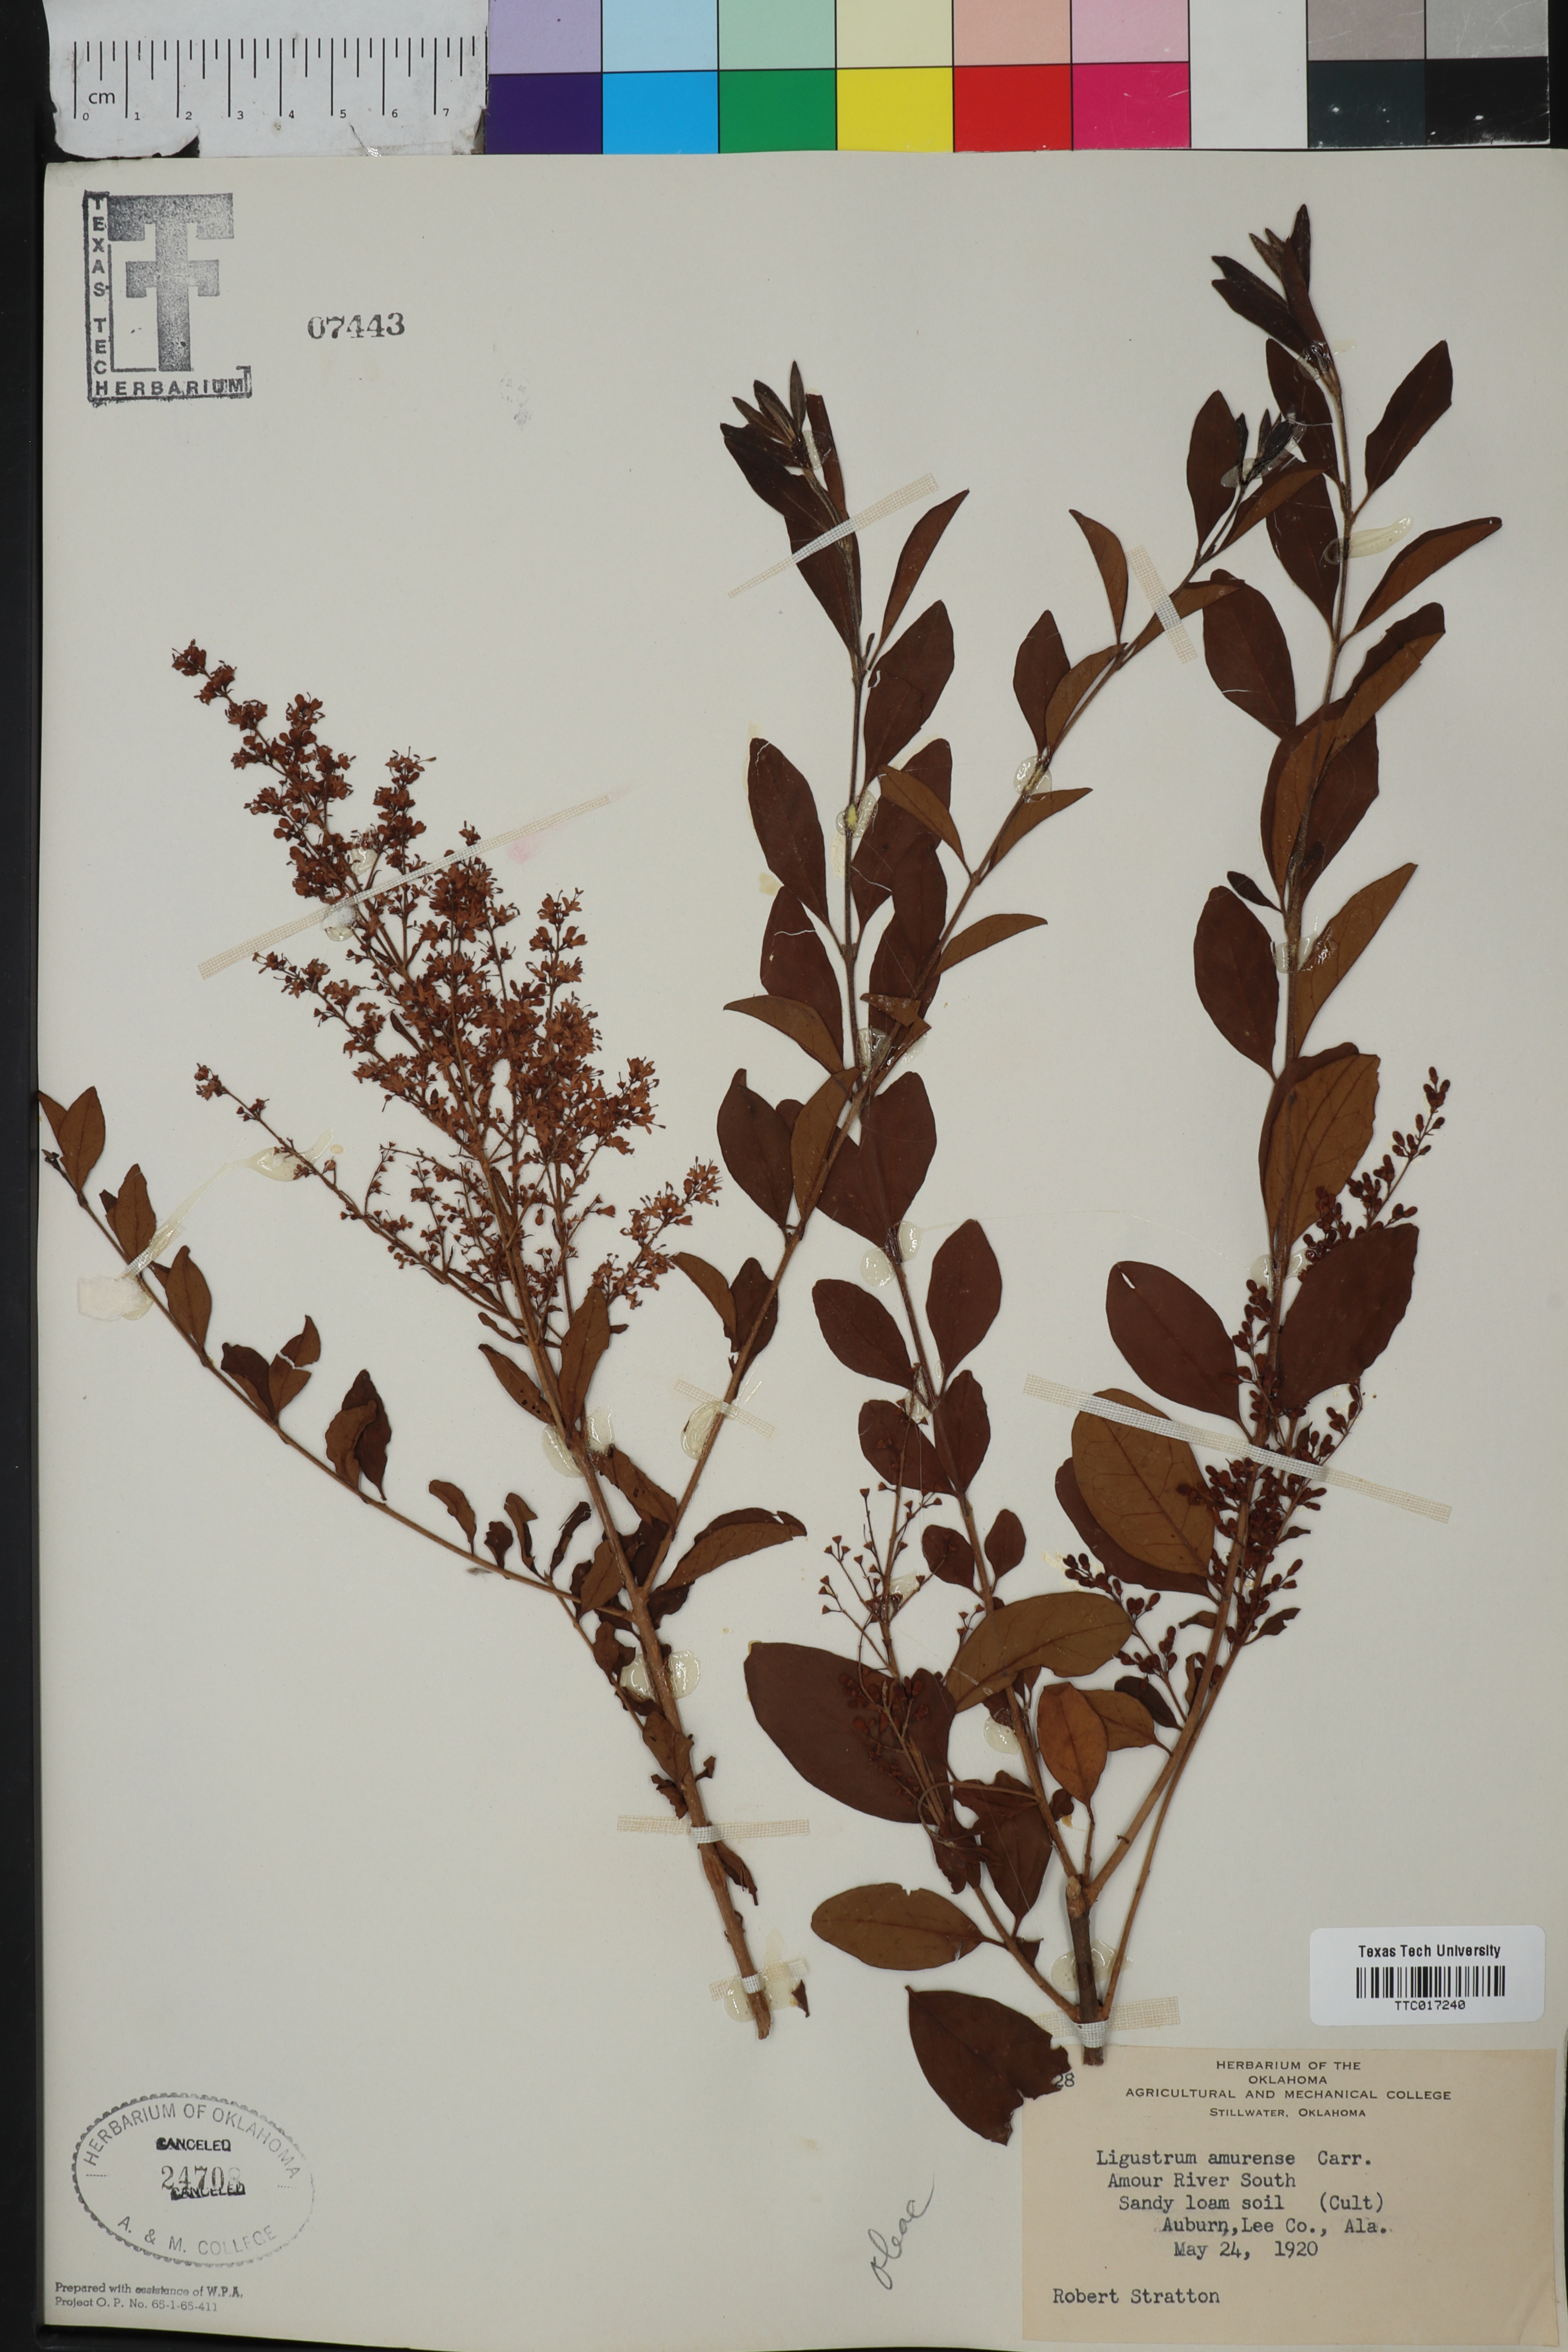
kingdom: Plantae
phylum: Tracheophyta
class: Magnoliopsida
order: Lamiales
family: Oleaceae
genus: Ligustrum
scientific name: Ligustrum obtusifolium
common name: Border privet
